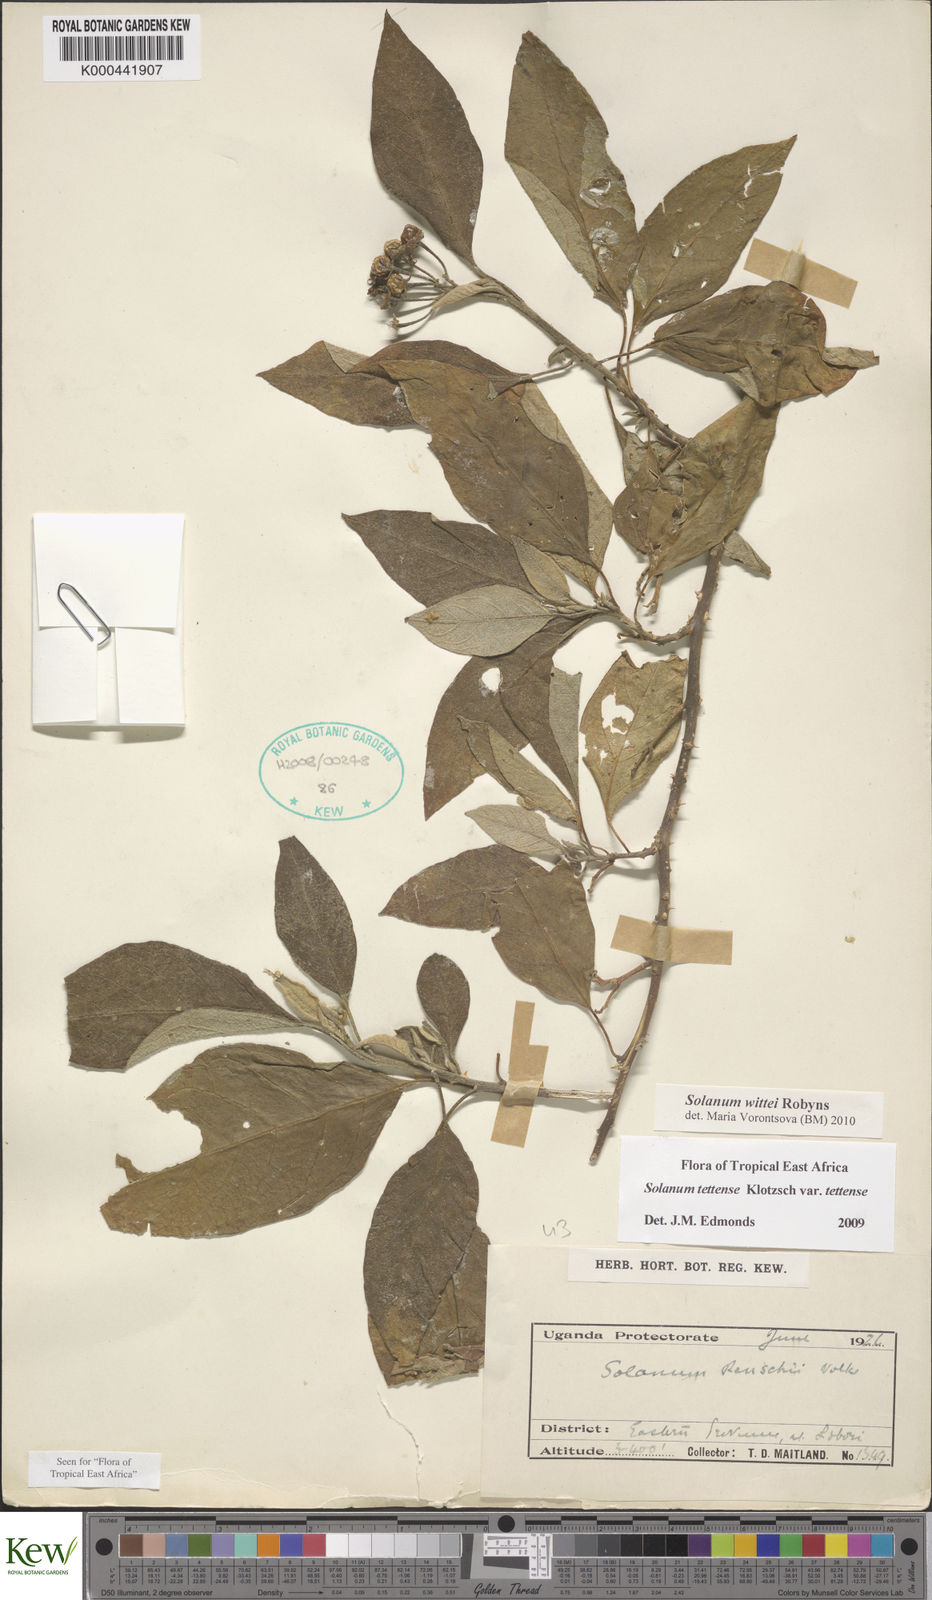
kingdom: Plantae
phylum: Tracheophyta
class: Magnoliopsida
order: Solanales
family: Solanaceae
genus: Solanum
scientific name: Solanum wittei
